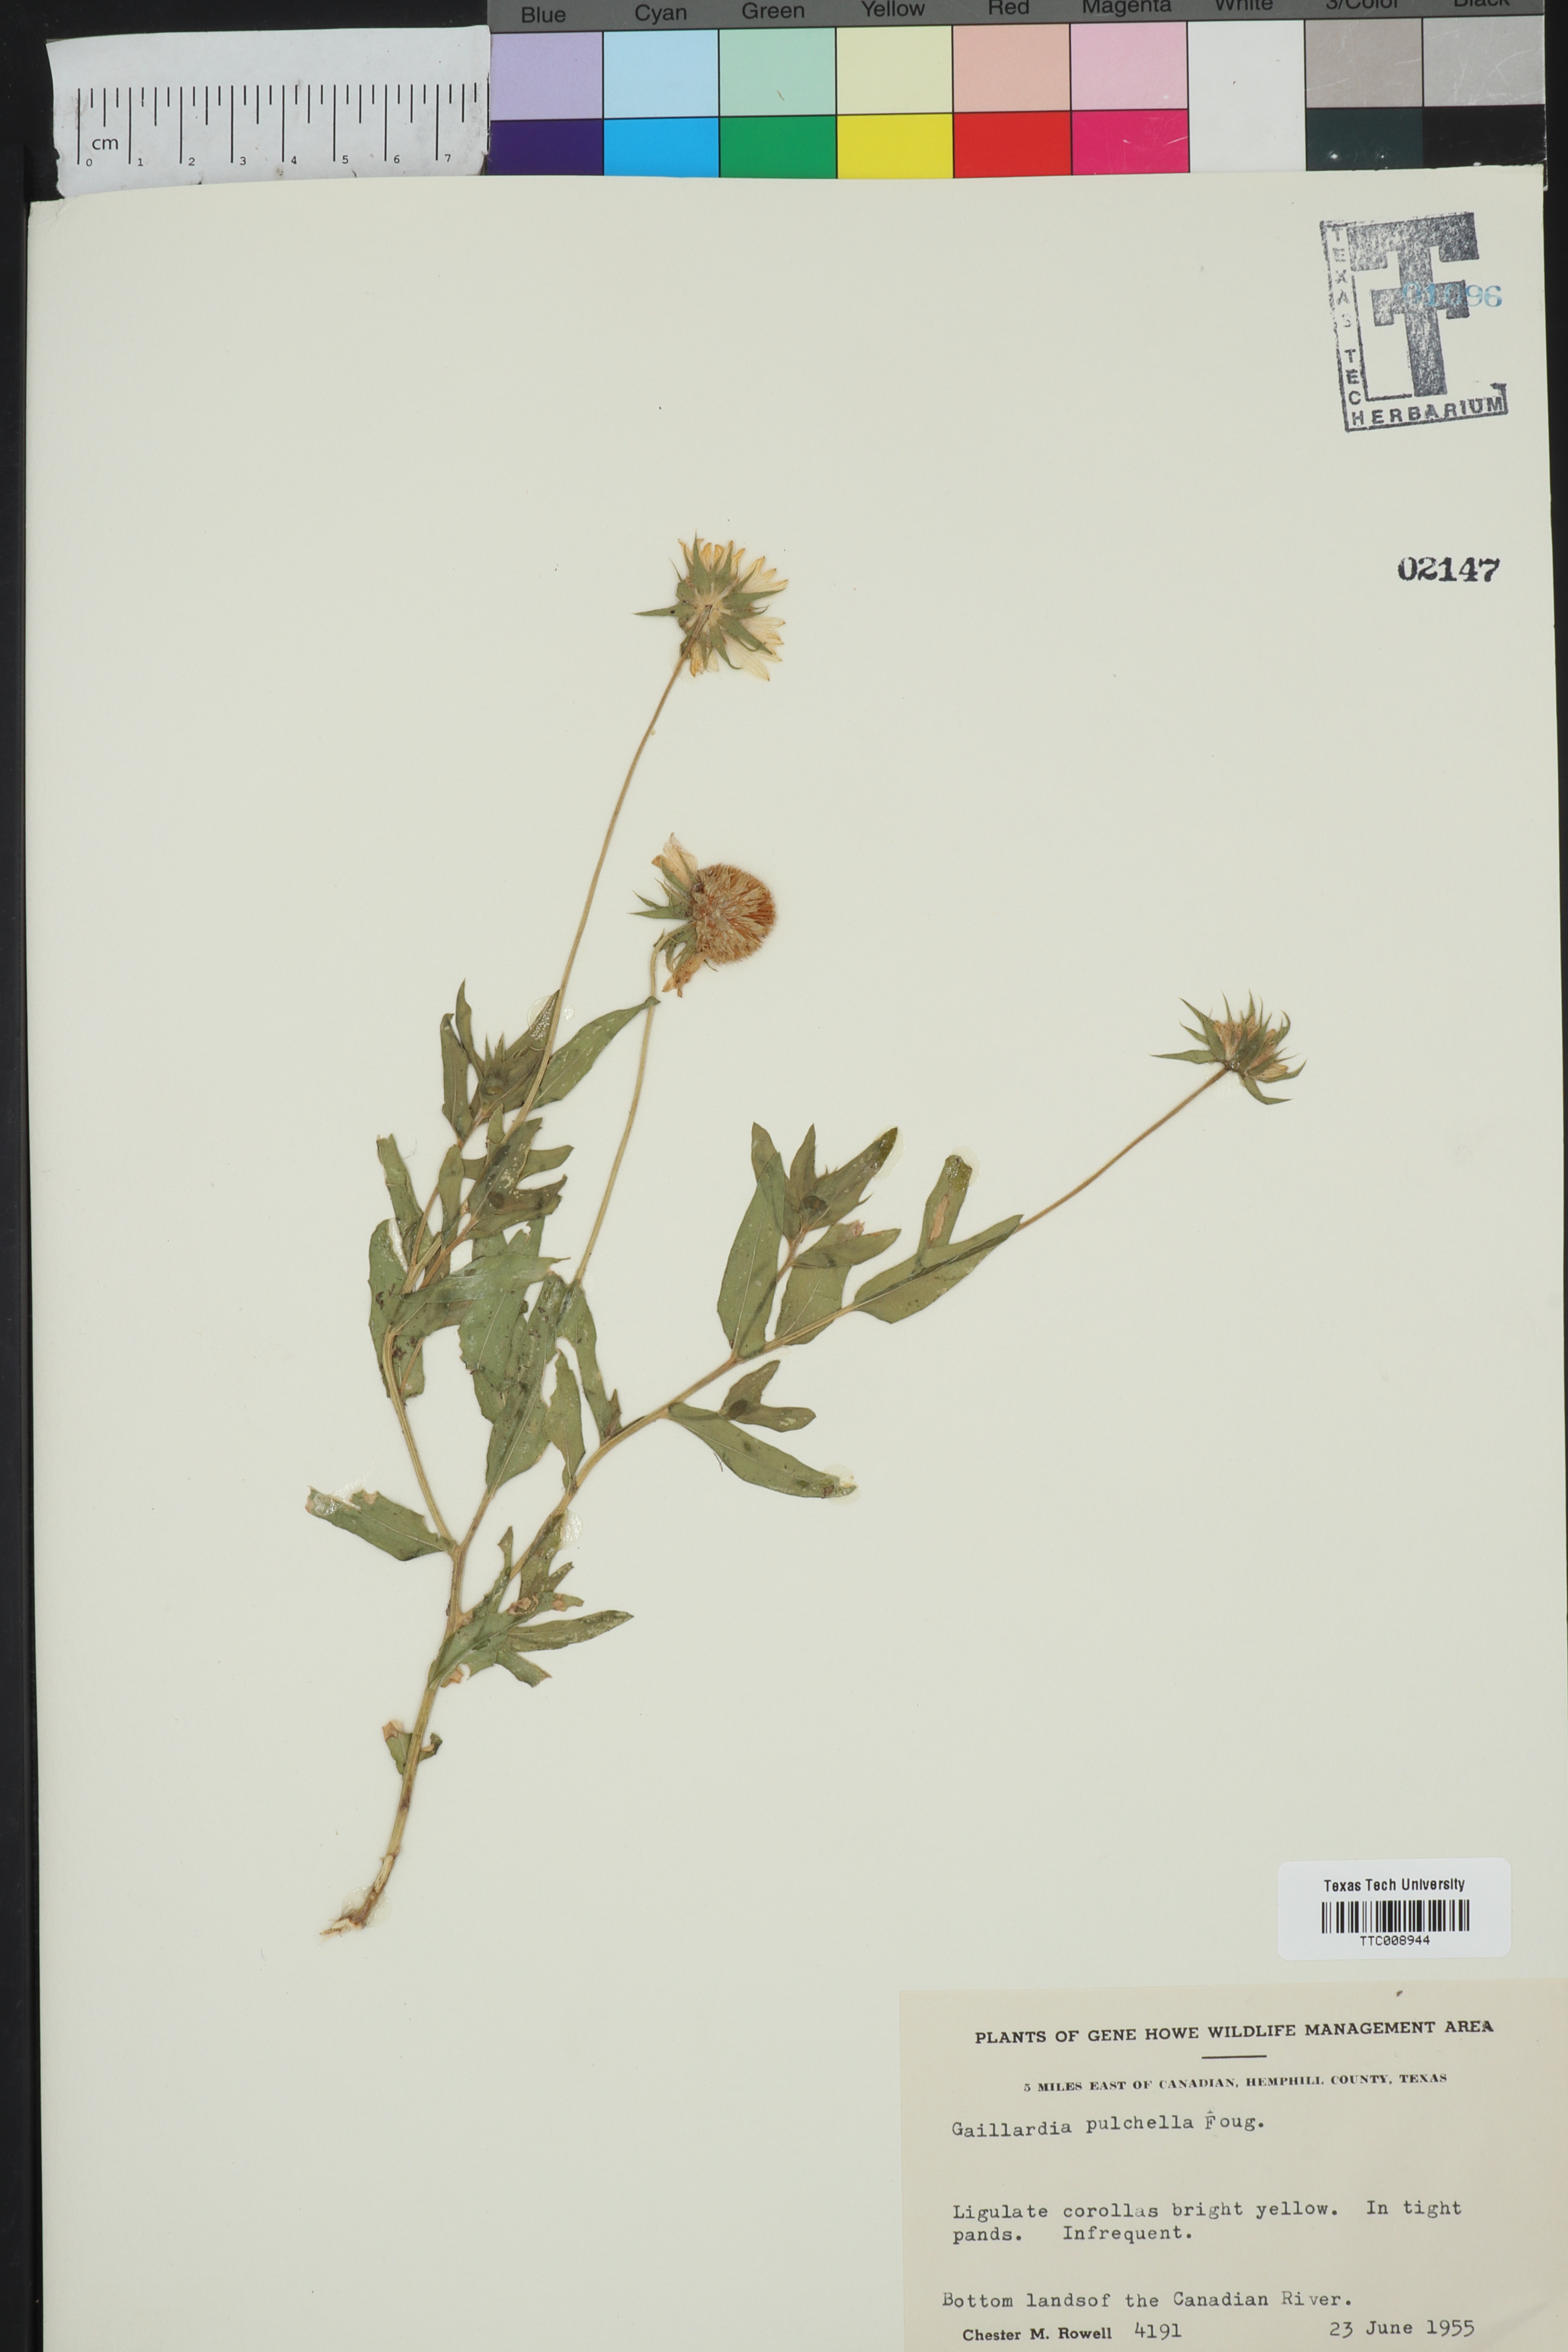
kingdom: Plantae
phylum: Tracheophyta
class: Magnoliopsida
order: Asterales
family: Asteraceae
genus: Gaillardia
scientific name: Gaillardia pulchella
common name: Firewheel
